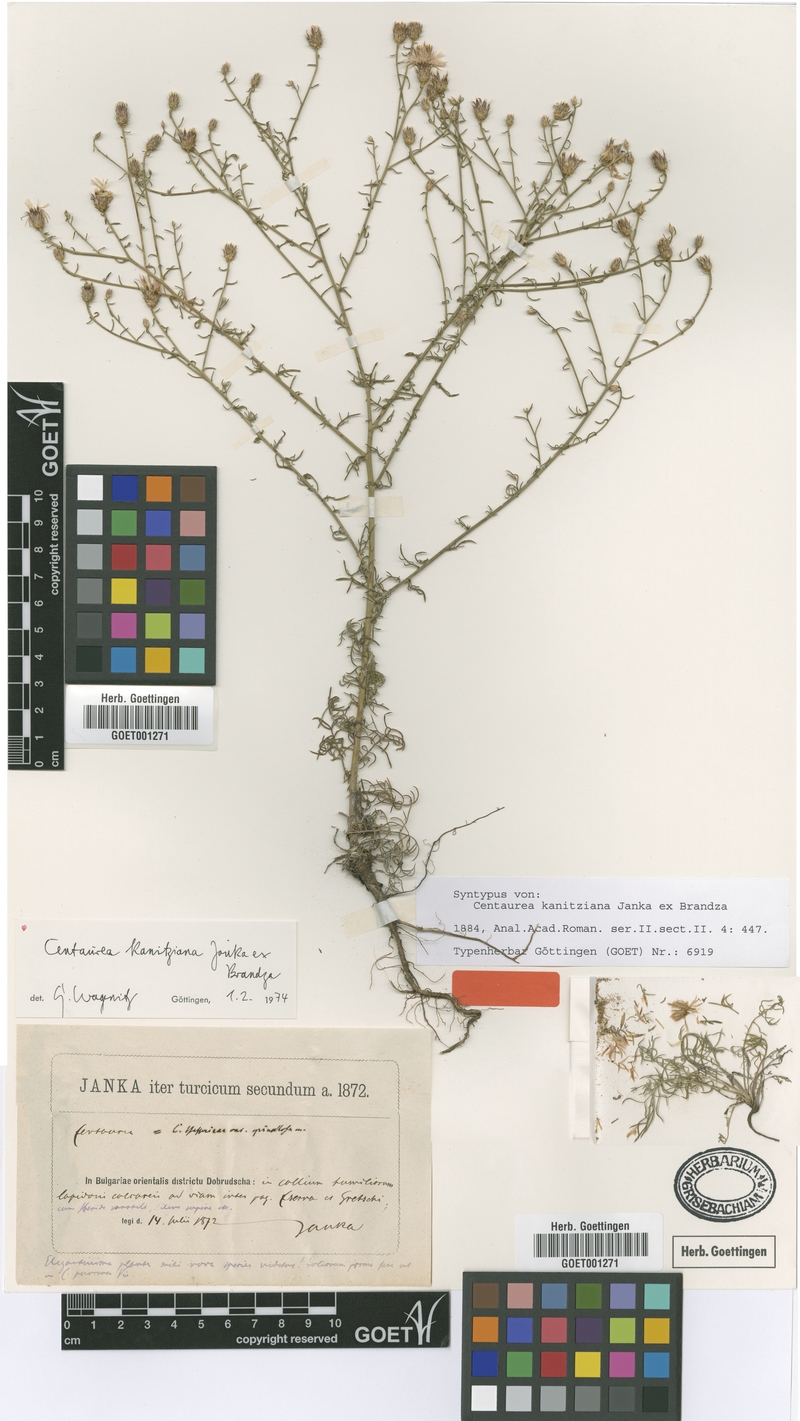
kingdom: Plantae
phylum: Tracheophyta
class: Magnoliopsida
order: Asterales
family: Asteraceae
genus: Centaurea
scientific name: Centaurea kanitziana
